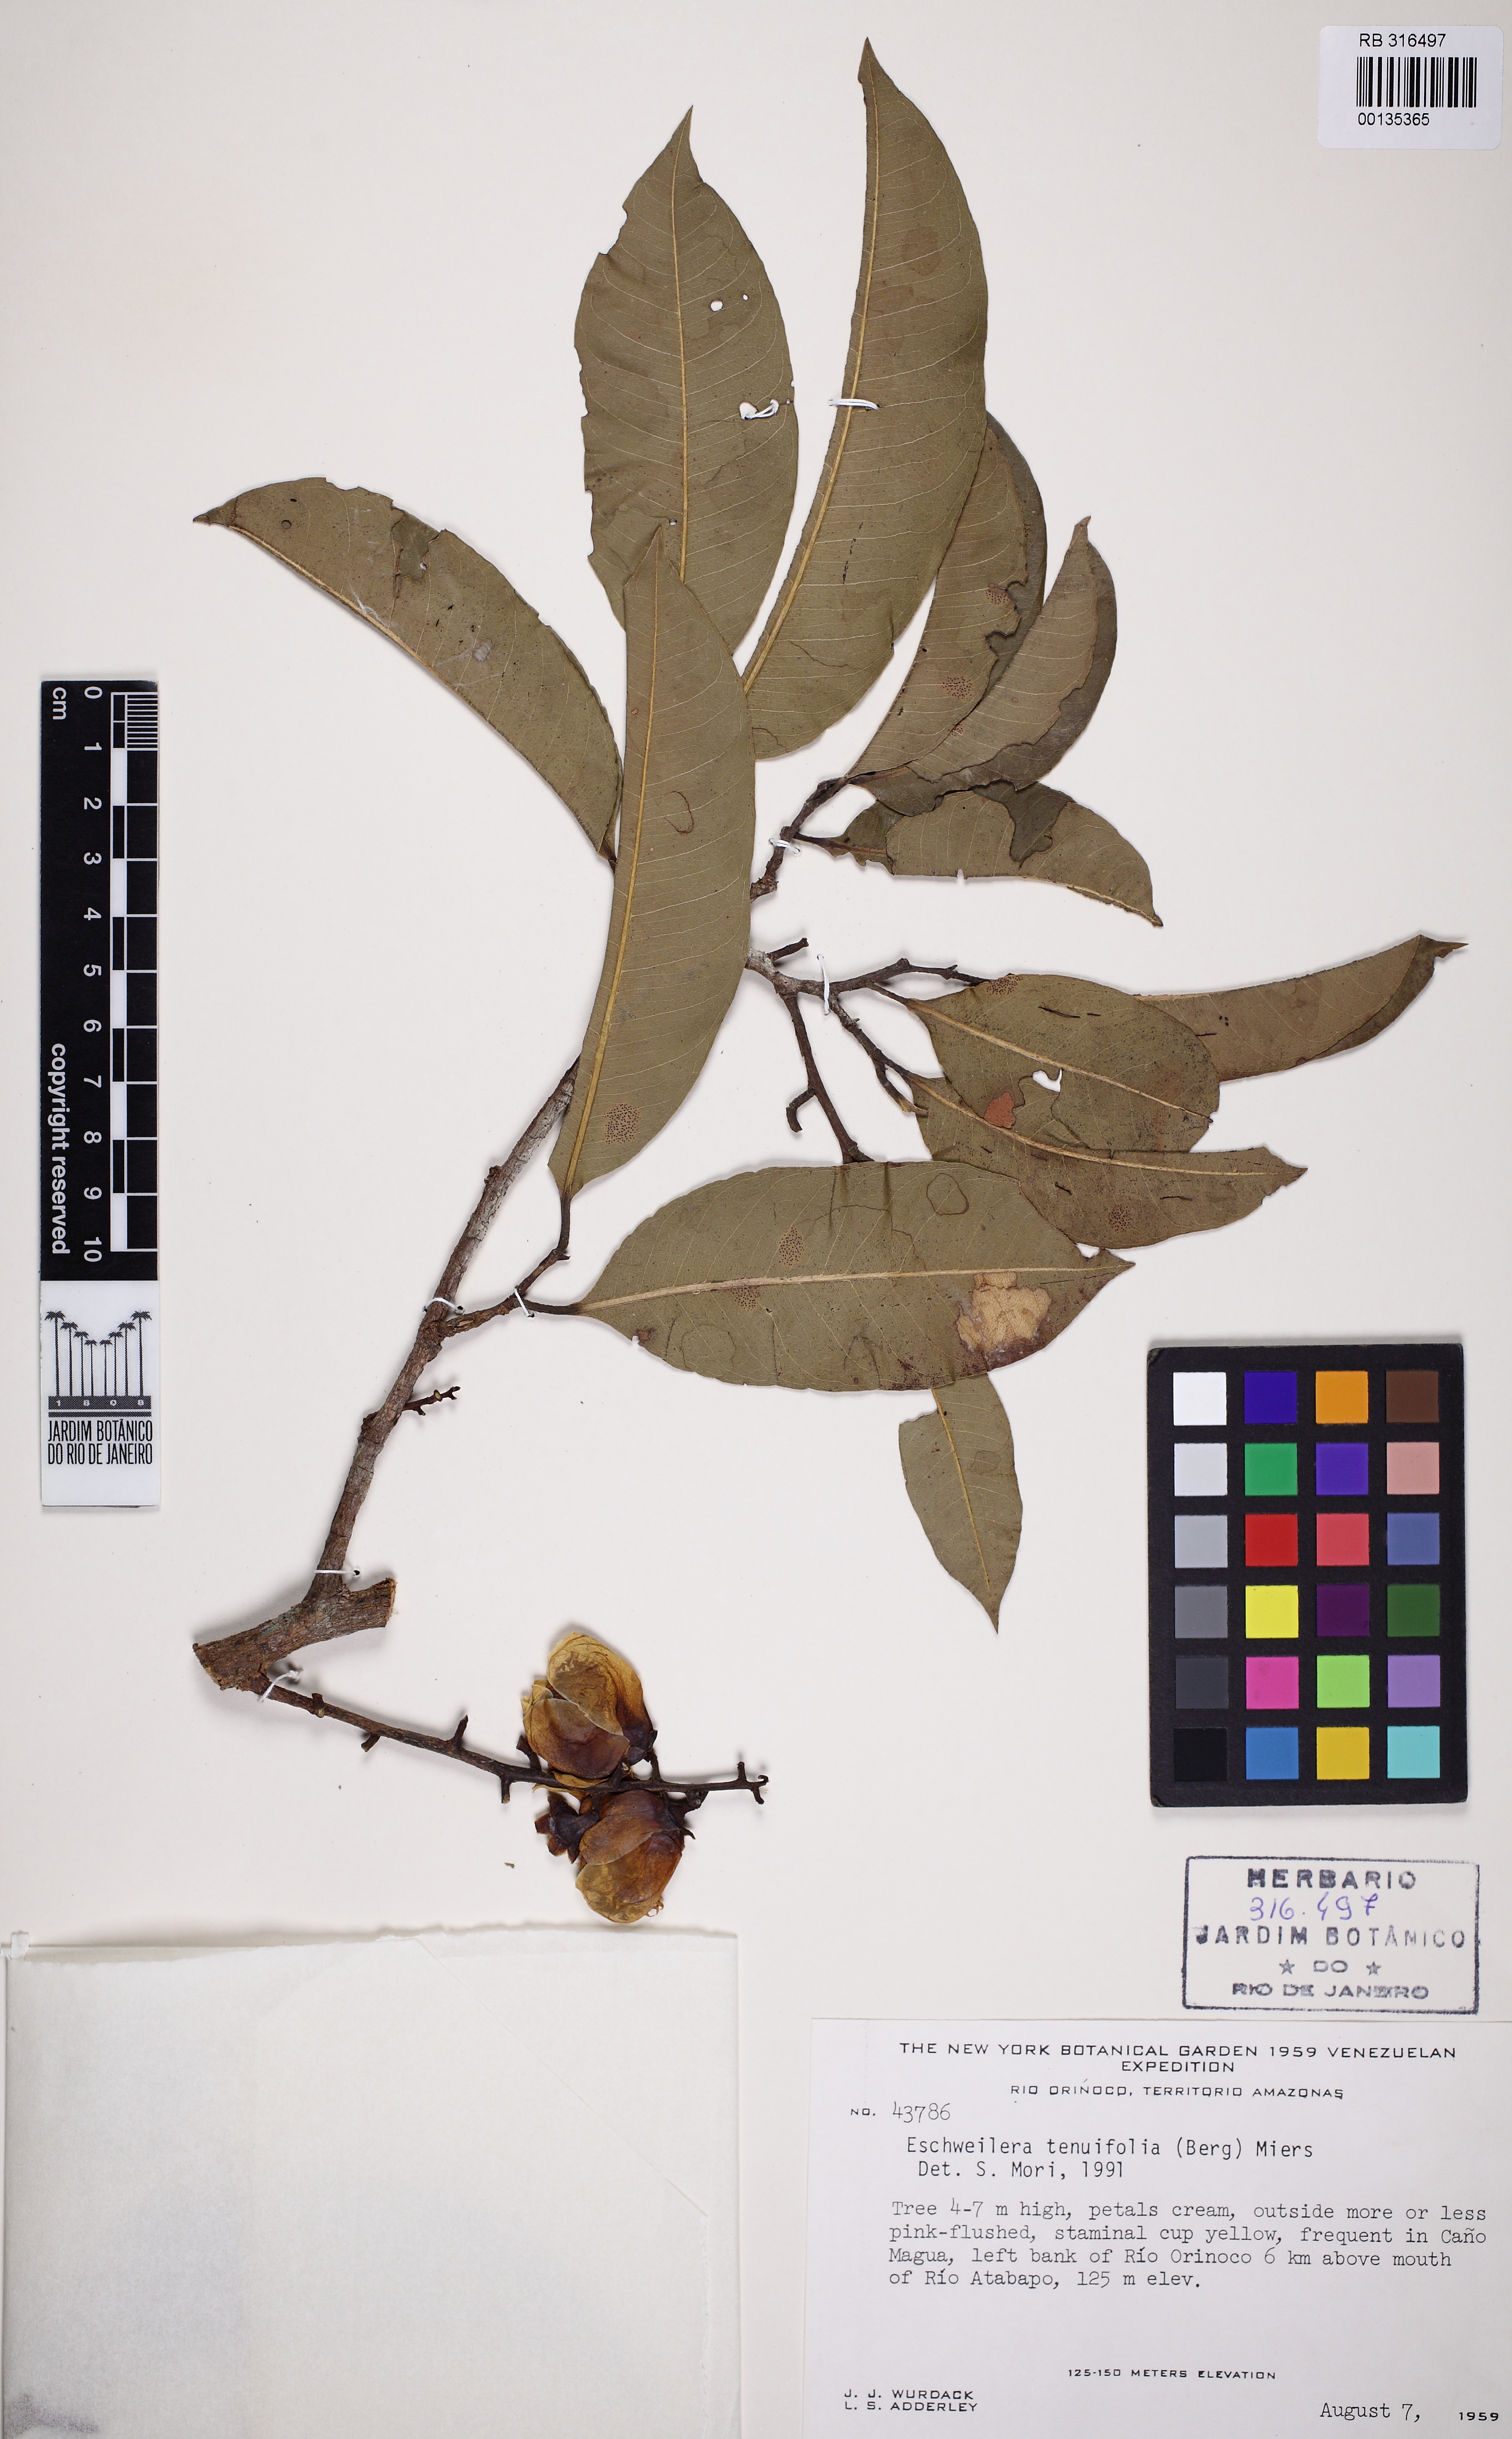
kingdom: Plantae
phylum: Tracheophyta
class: Magnoliopsida
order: Ericales
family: Lecythidaceae
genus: Eschweilera
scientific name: Eschweilera tenuifolia
